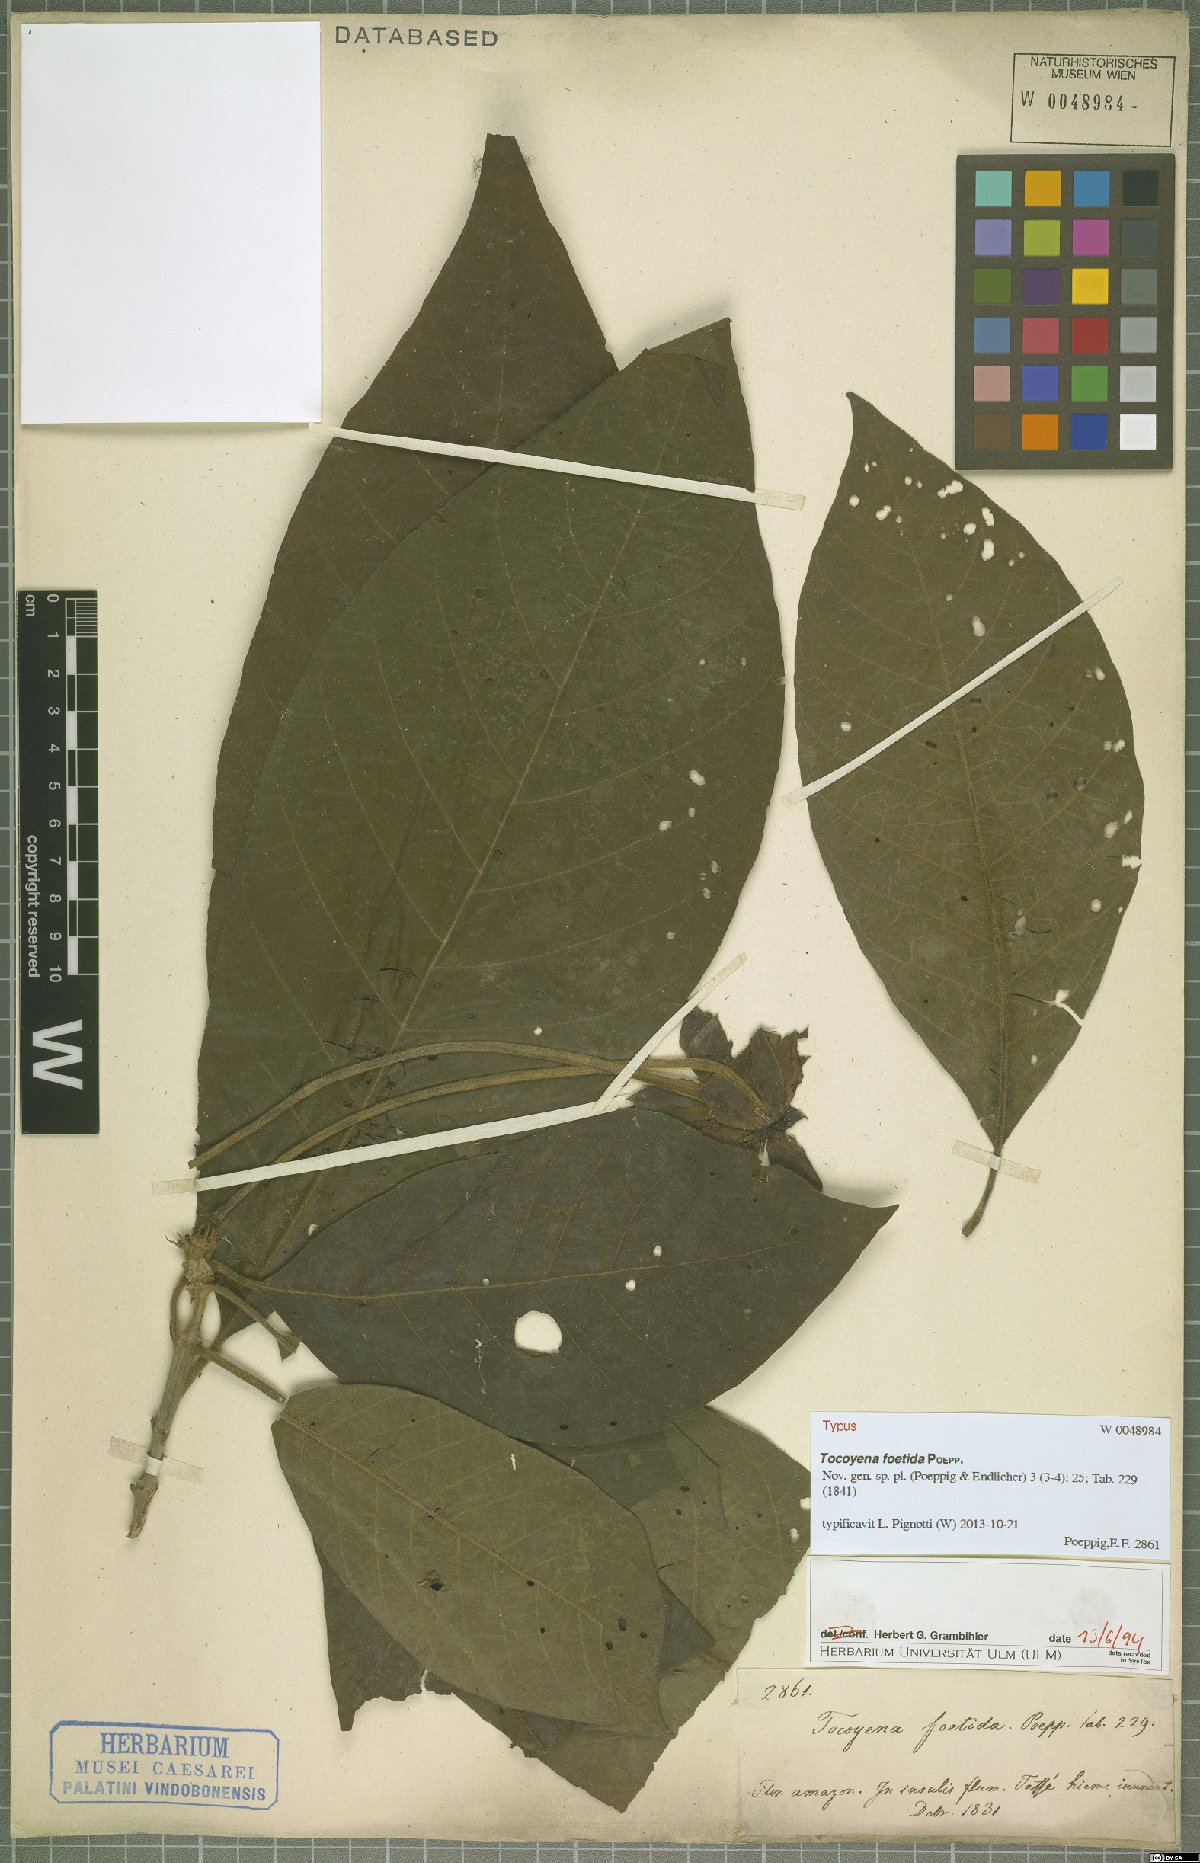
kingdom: Plantae
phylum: Tracheophyta
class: Magnoliopsida
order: Gentianales
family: Rubiaceae
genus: Tocoyena
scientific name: Tocoyena foetida
